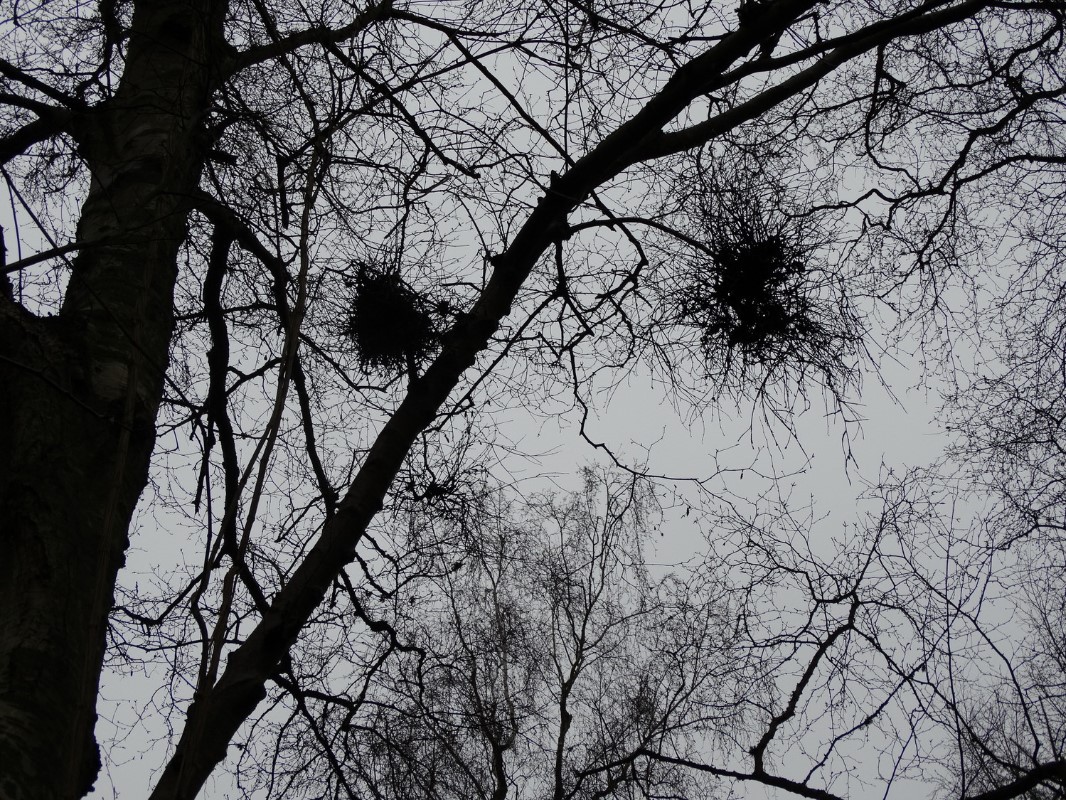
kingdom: Fungi
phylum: Ascomycota
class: Taphrinomycetes
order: Taphrinales
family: Taphrinaceae
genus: Taphrina
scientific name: Taphrina betulina
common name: hekse-sækdug
